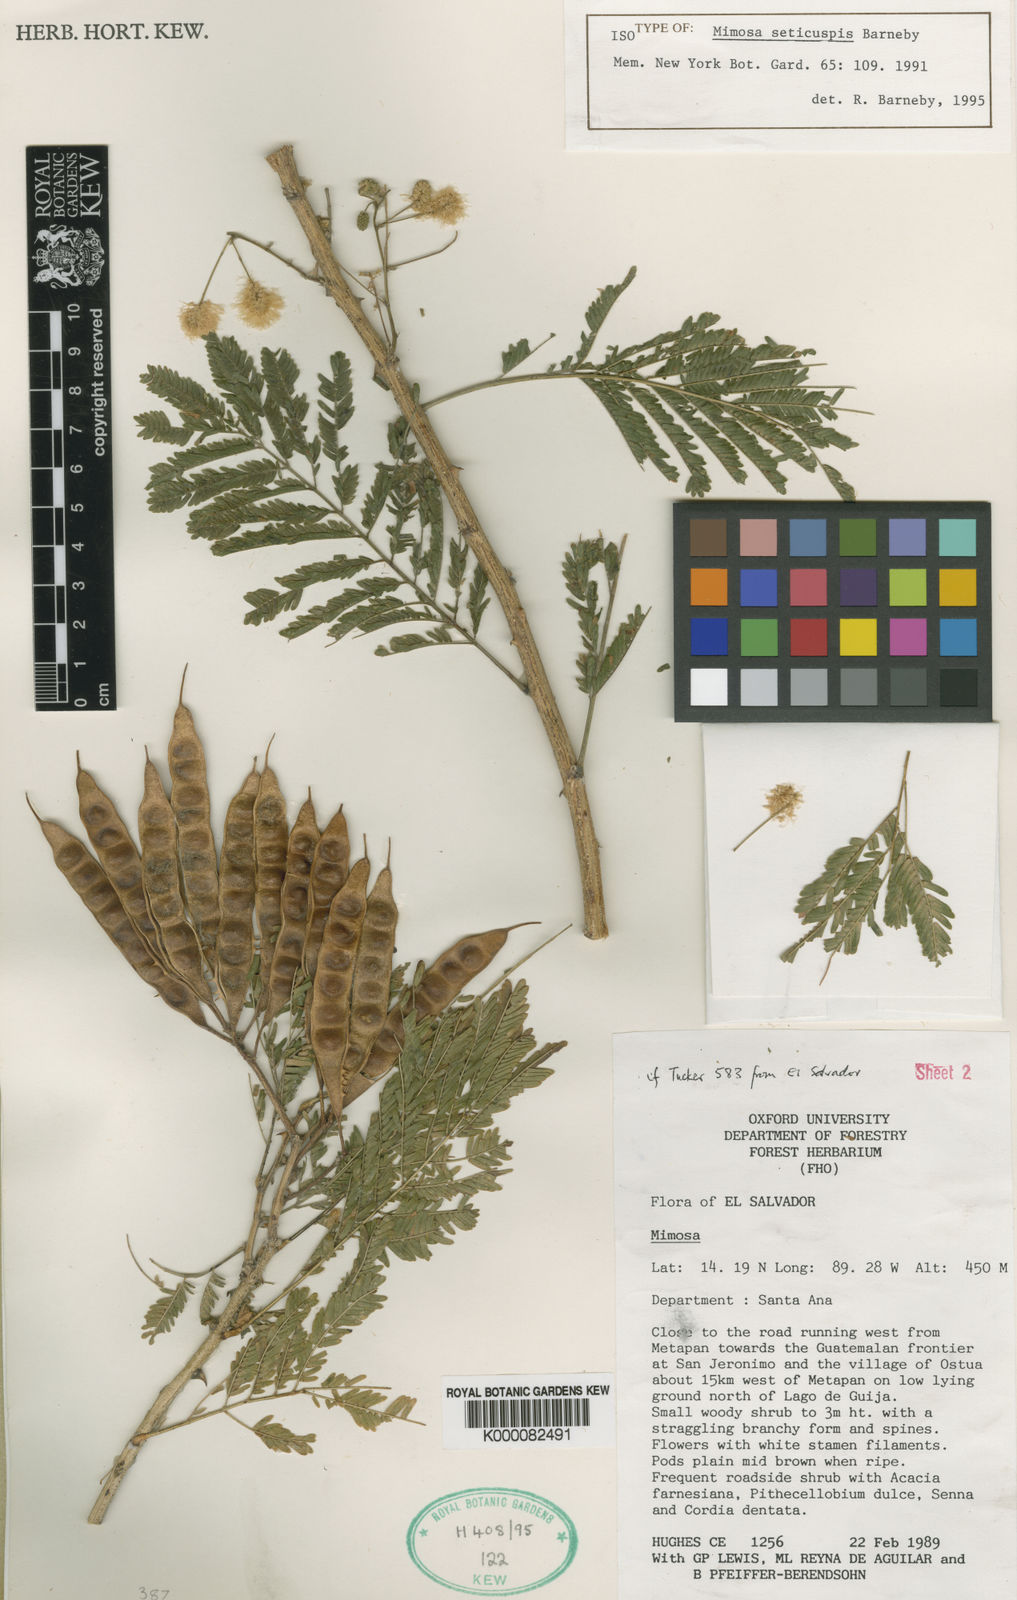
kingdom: Plantae
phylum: Tracheophyta
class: Magnoliopsida
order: Fabales
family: Fabaceae
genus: Mimosa
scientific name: Mimosa acantholoba
